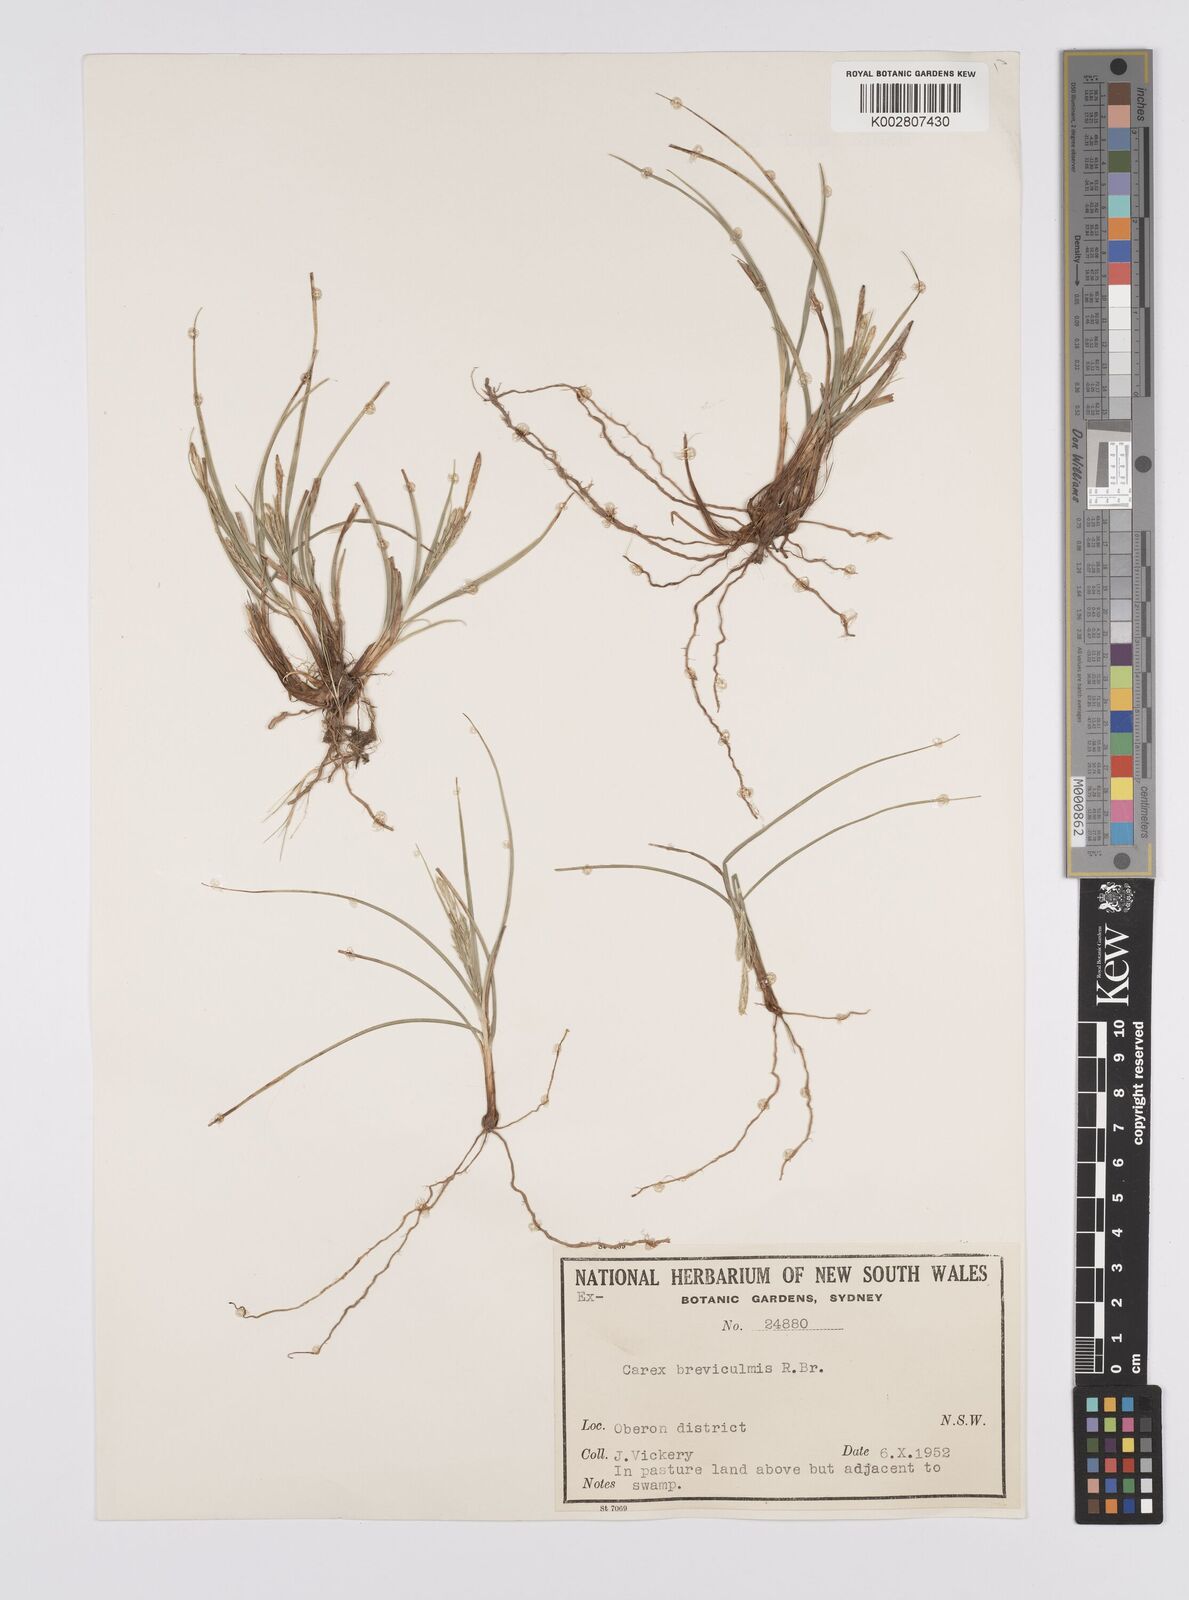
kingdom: Plantae
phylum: Tracheophyta
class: Liliopsida
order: Poales
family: Cyperaceae
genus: Carex
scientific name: Carex breviculmis
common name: Asian shortstem sedge
